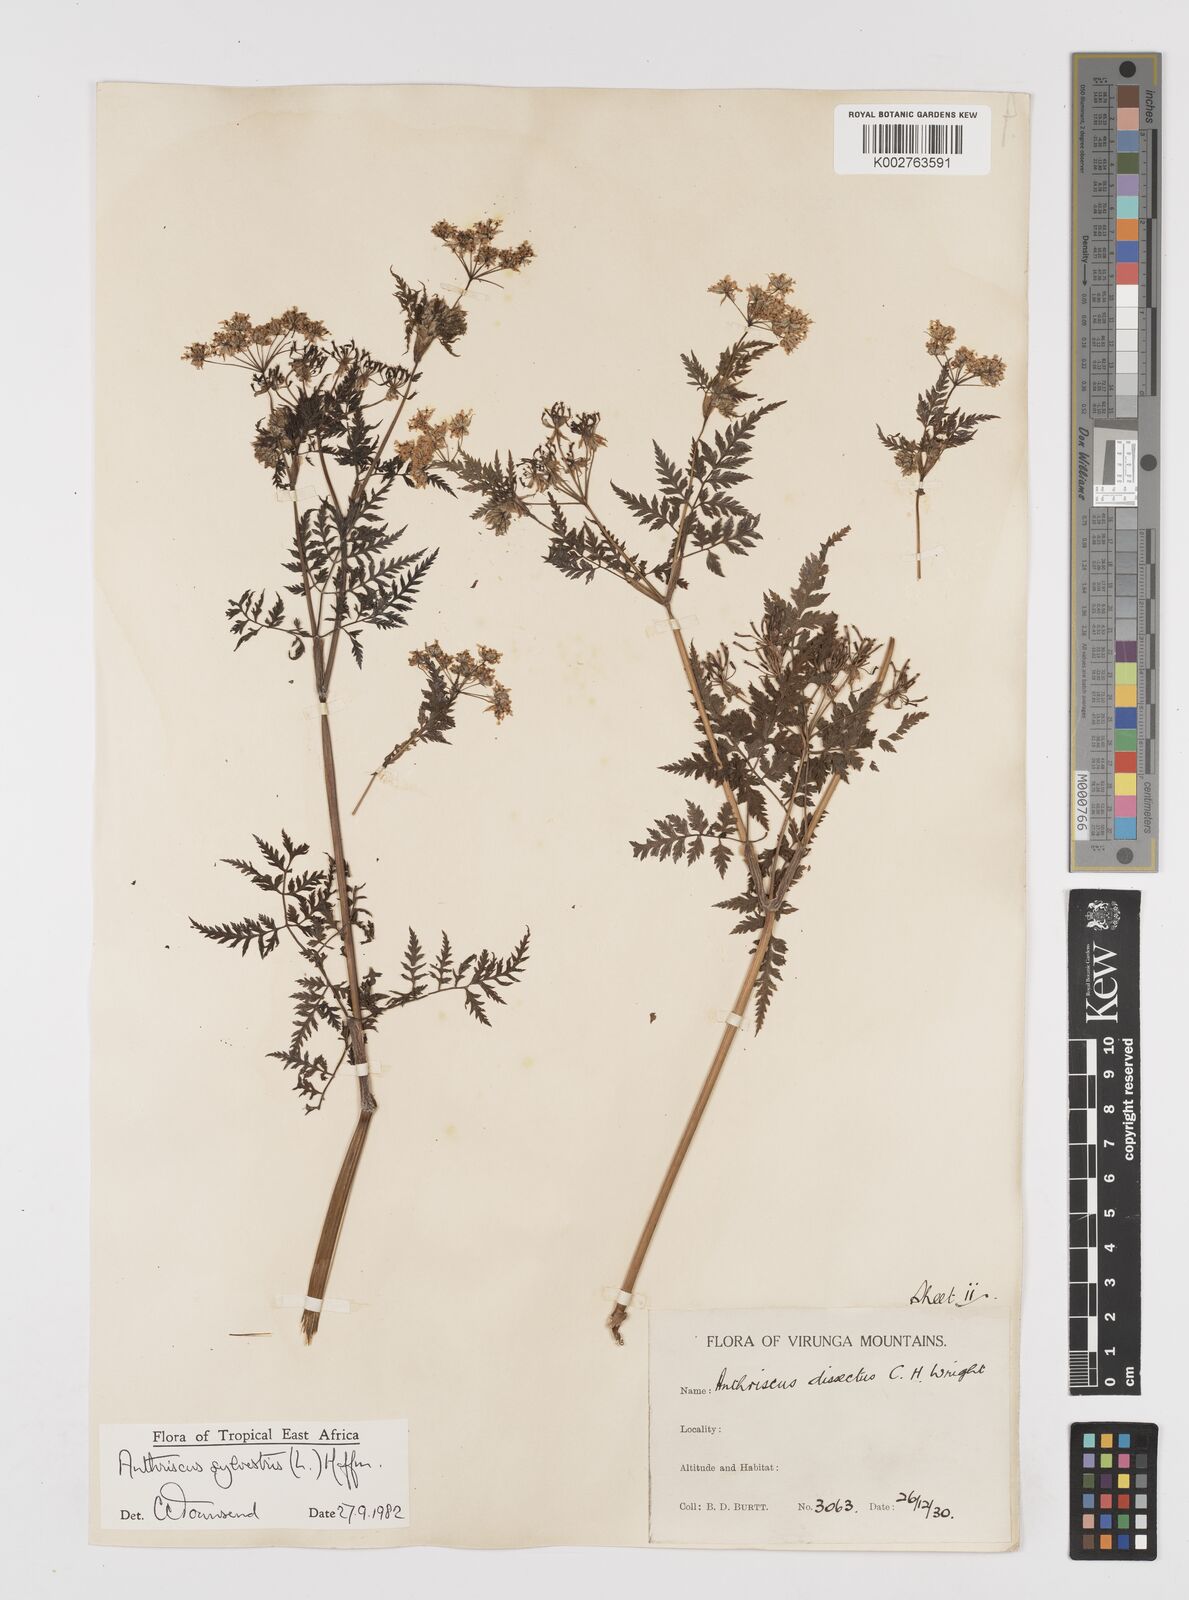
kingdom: Plantae
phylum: Tracheophyta
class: Magnoliopsida
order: Apiales
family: Apiaceae
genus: Anthriscus
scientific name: Anthriscus sylvestris
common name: Cow parsley
